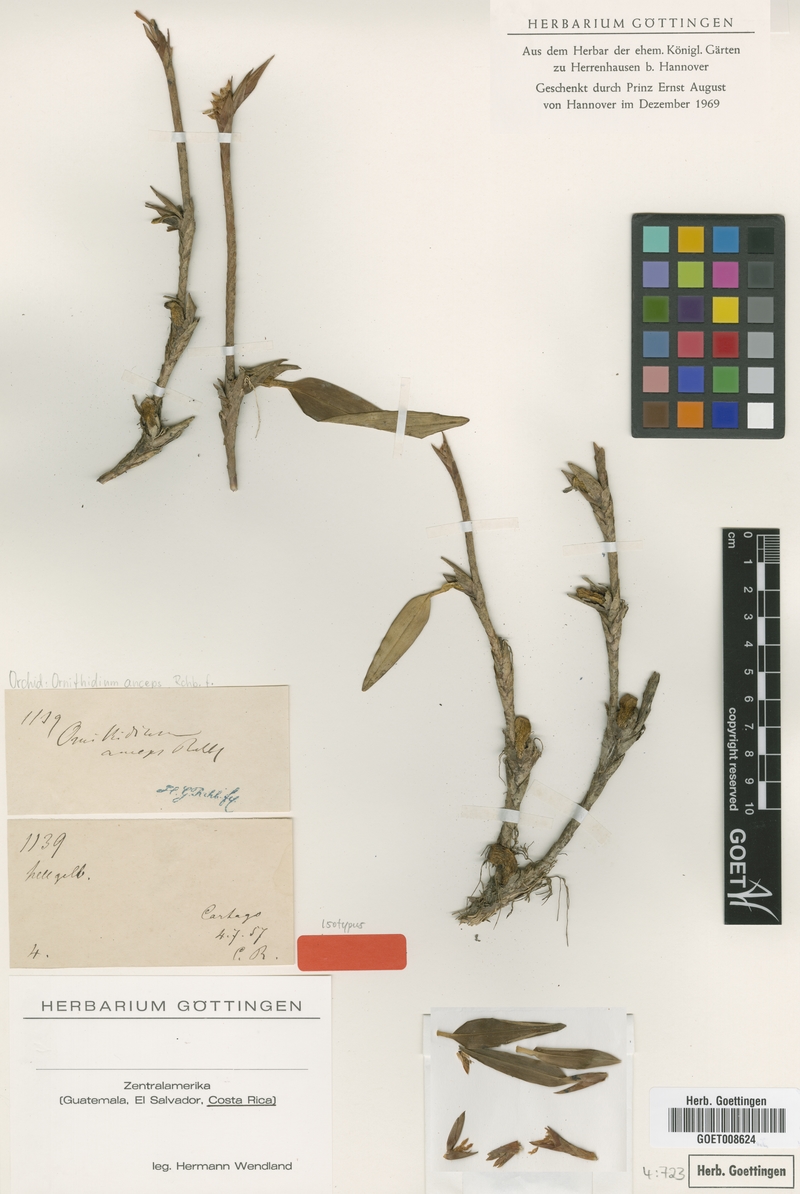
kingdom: Plantae
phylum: Tracheophyta
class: Liliopsida
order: Asparagales
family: Orchidaceae
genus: Maxillaria
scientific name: Maxillaria pseudoneglecta
